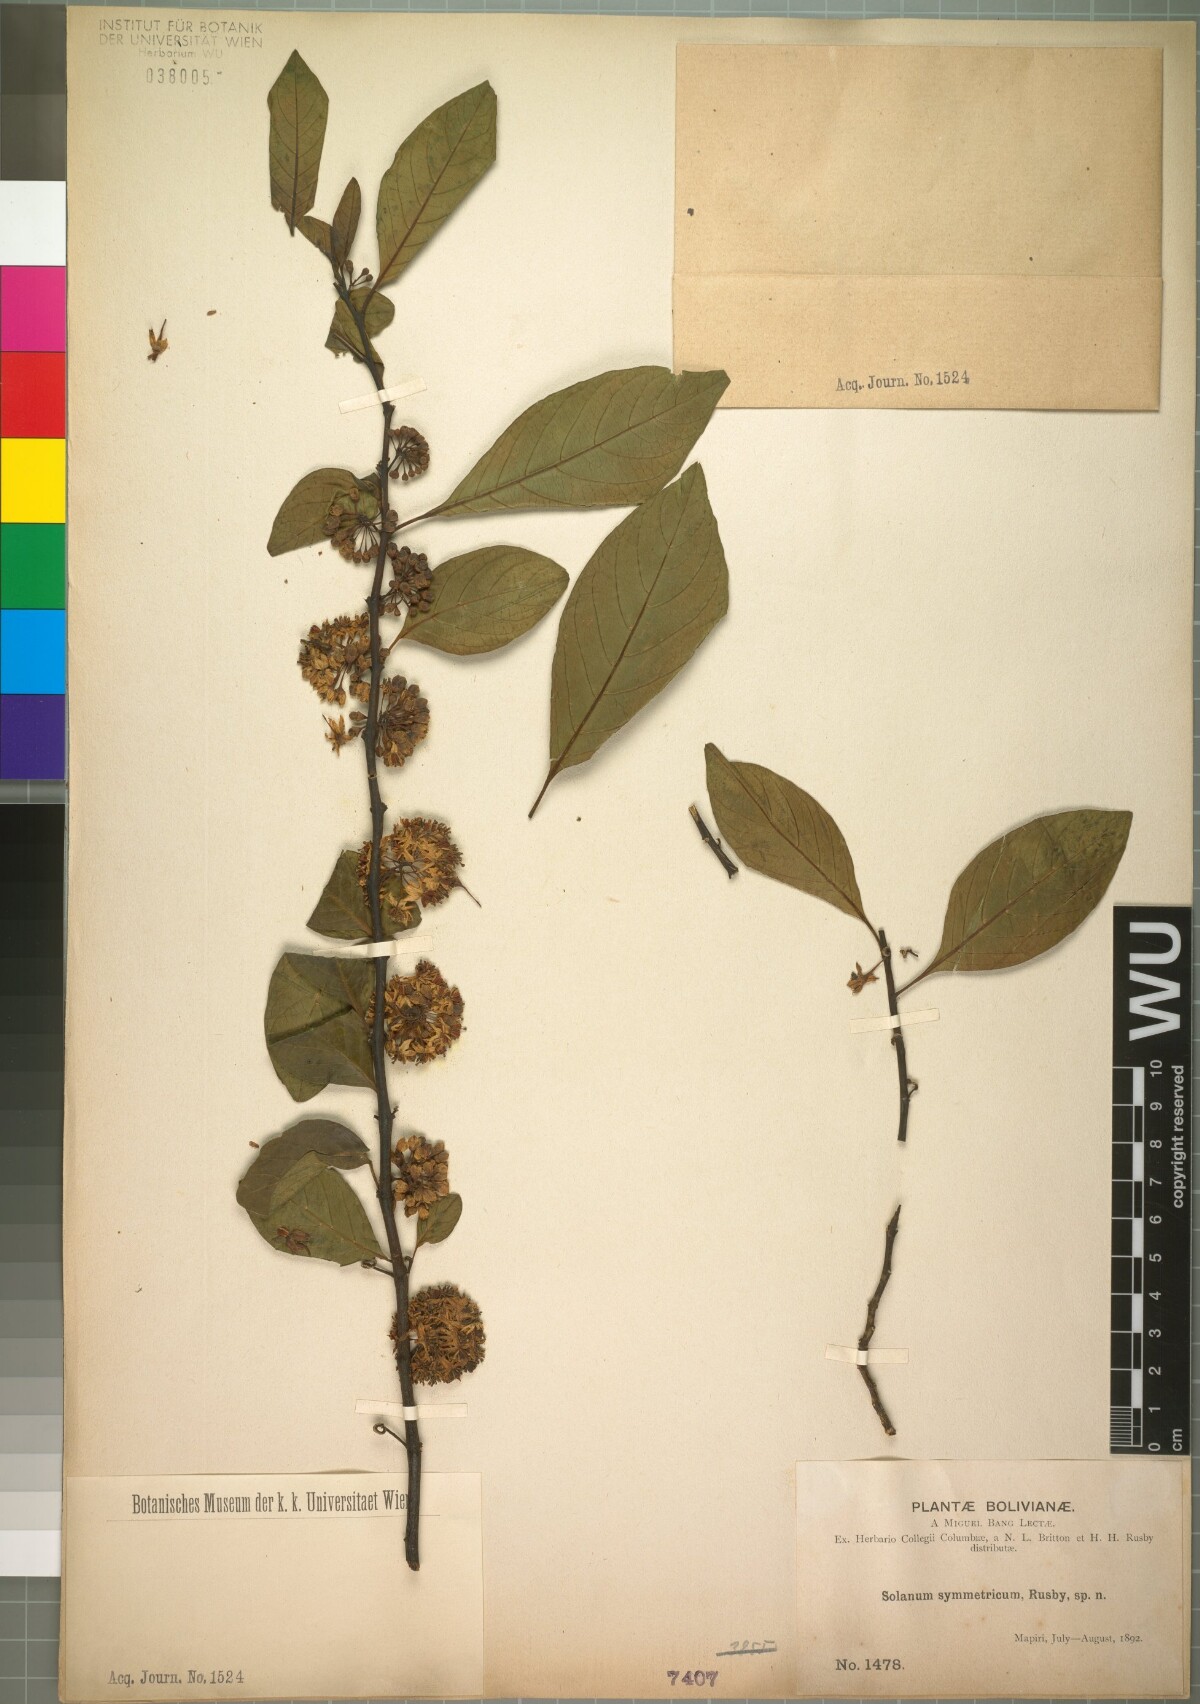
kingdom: Plantae
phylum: Tracheophyta
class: Magnoliopsida
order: Solanales
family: Solanaceae
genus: Solanum
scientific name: Solanum symmetricum
